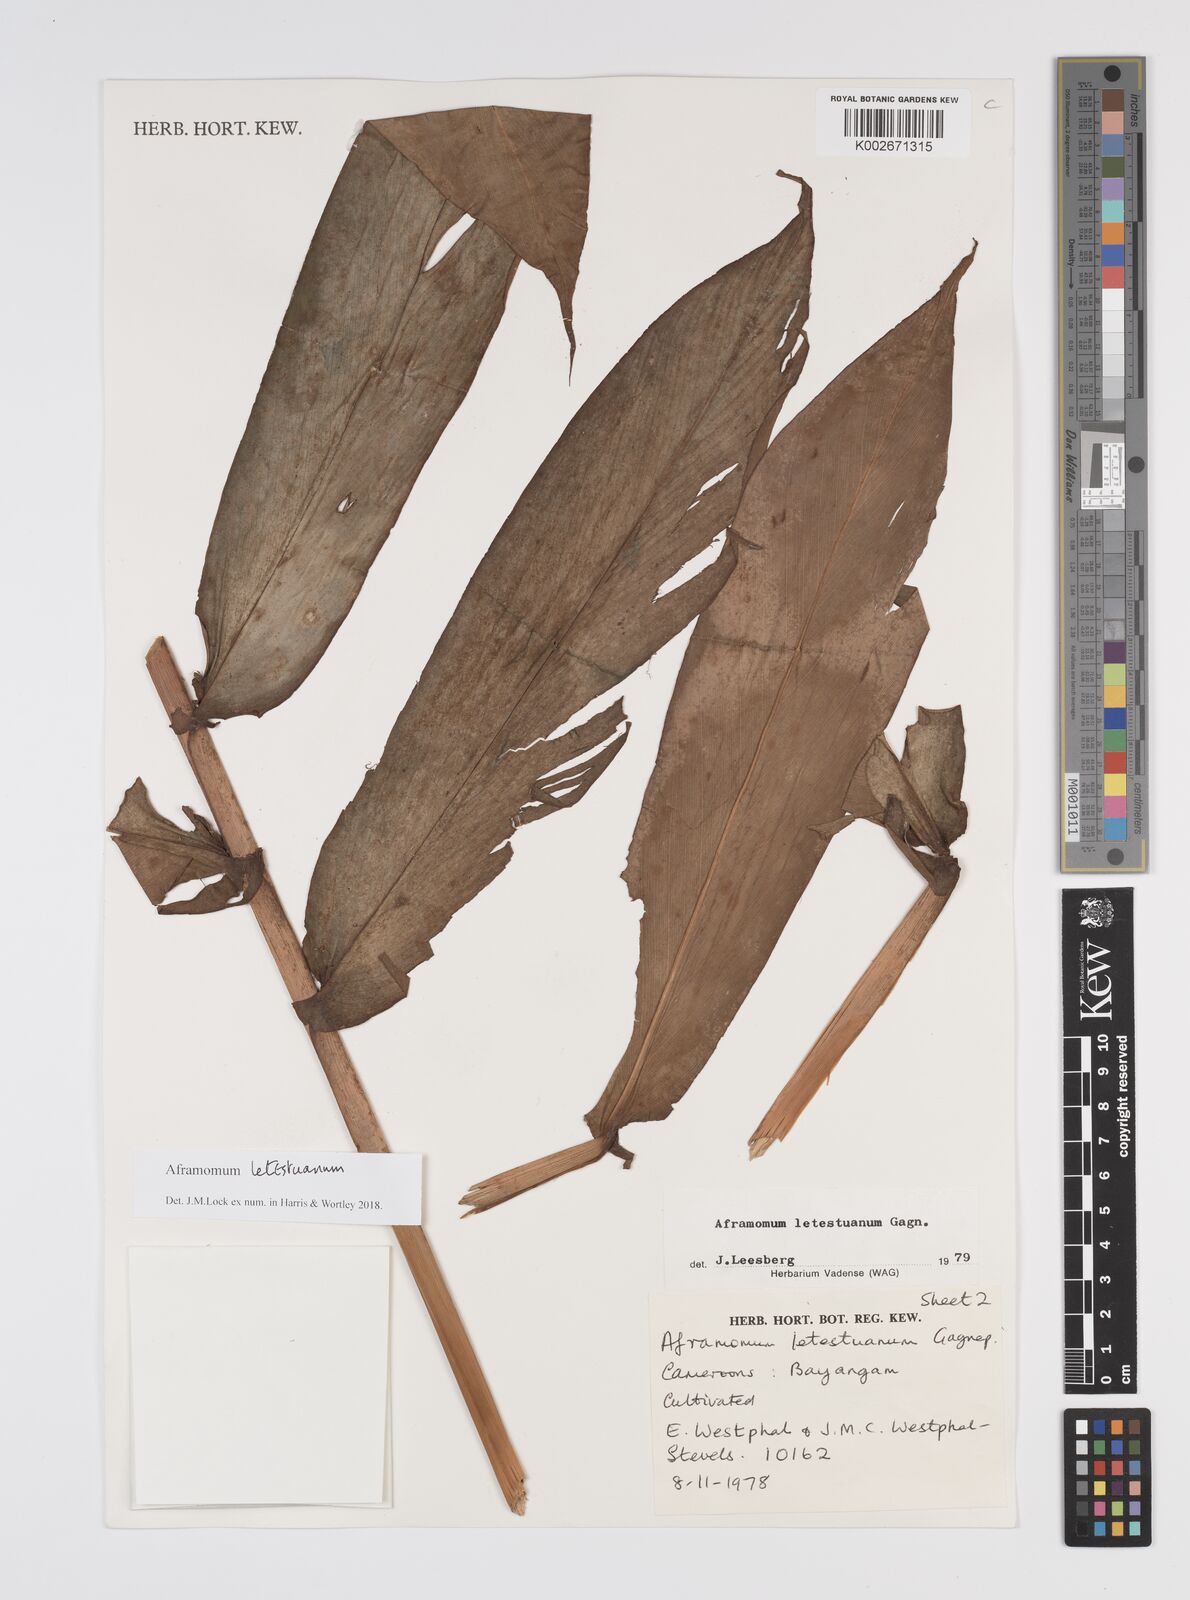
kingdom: Plantae
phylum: Tracheophyta
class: Liliopsida
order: Zingiberales
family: Zingiberaceae
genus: Aframomum
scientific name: Aframomum letestuanum
